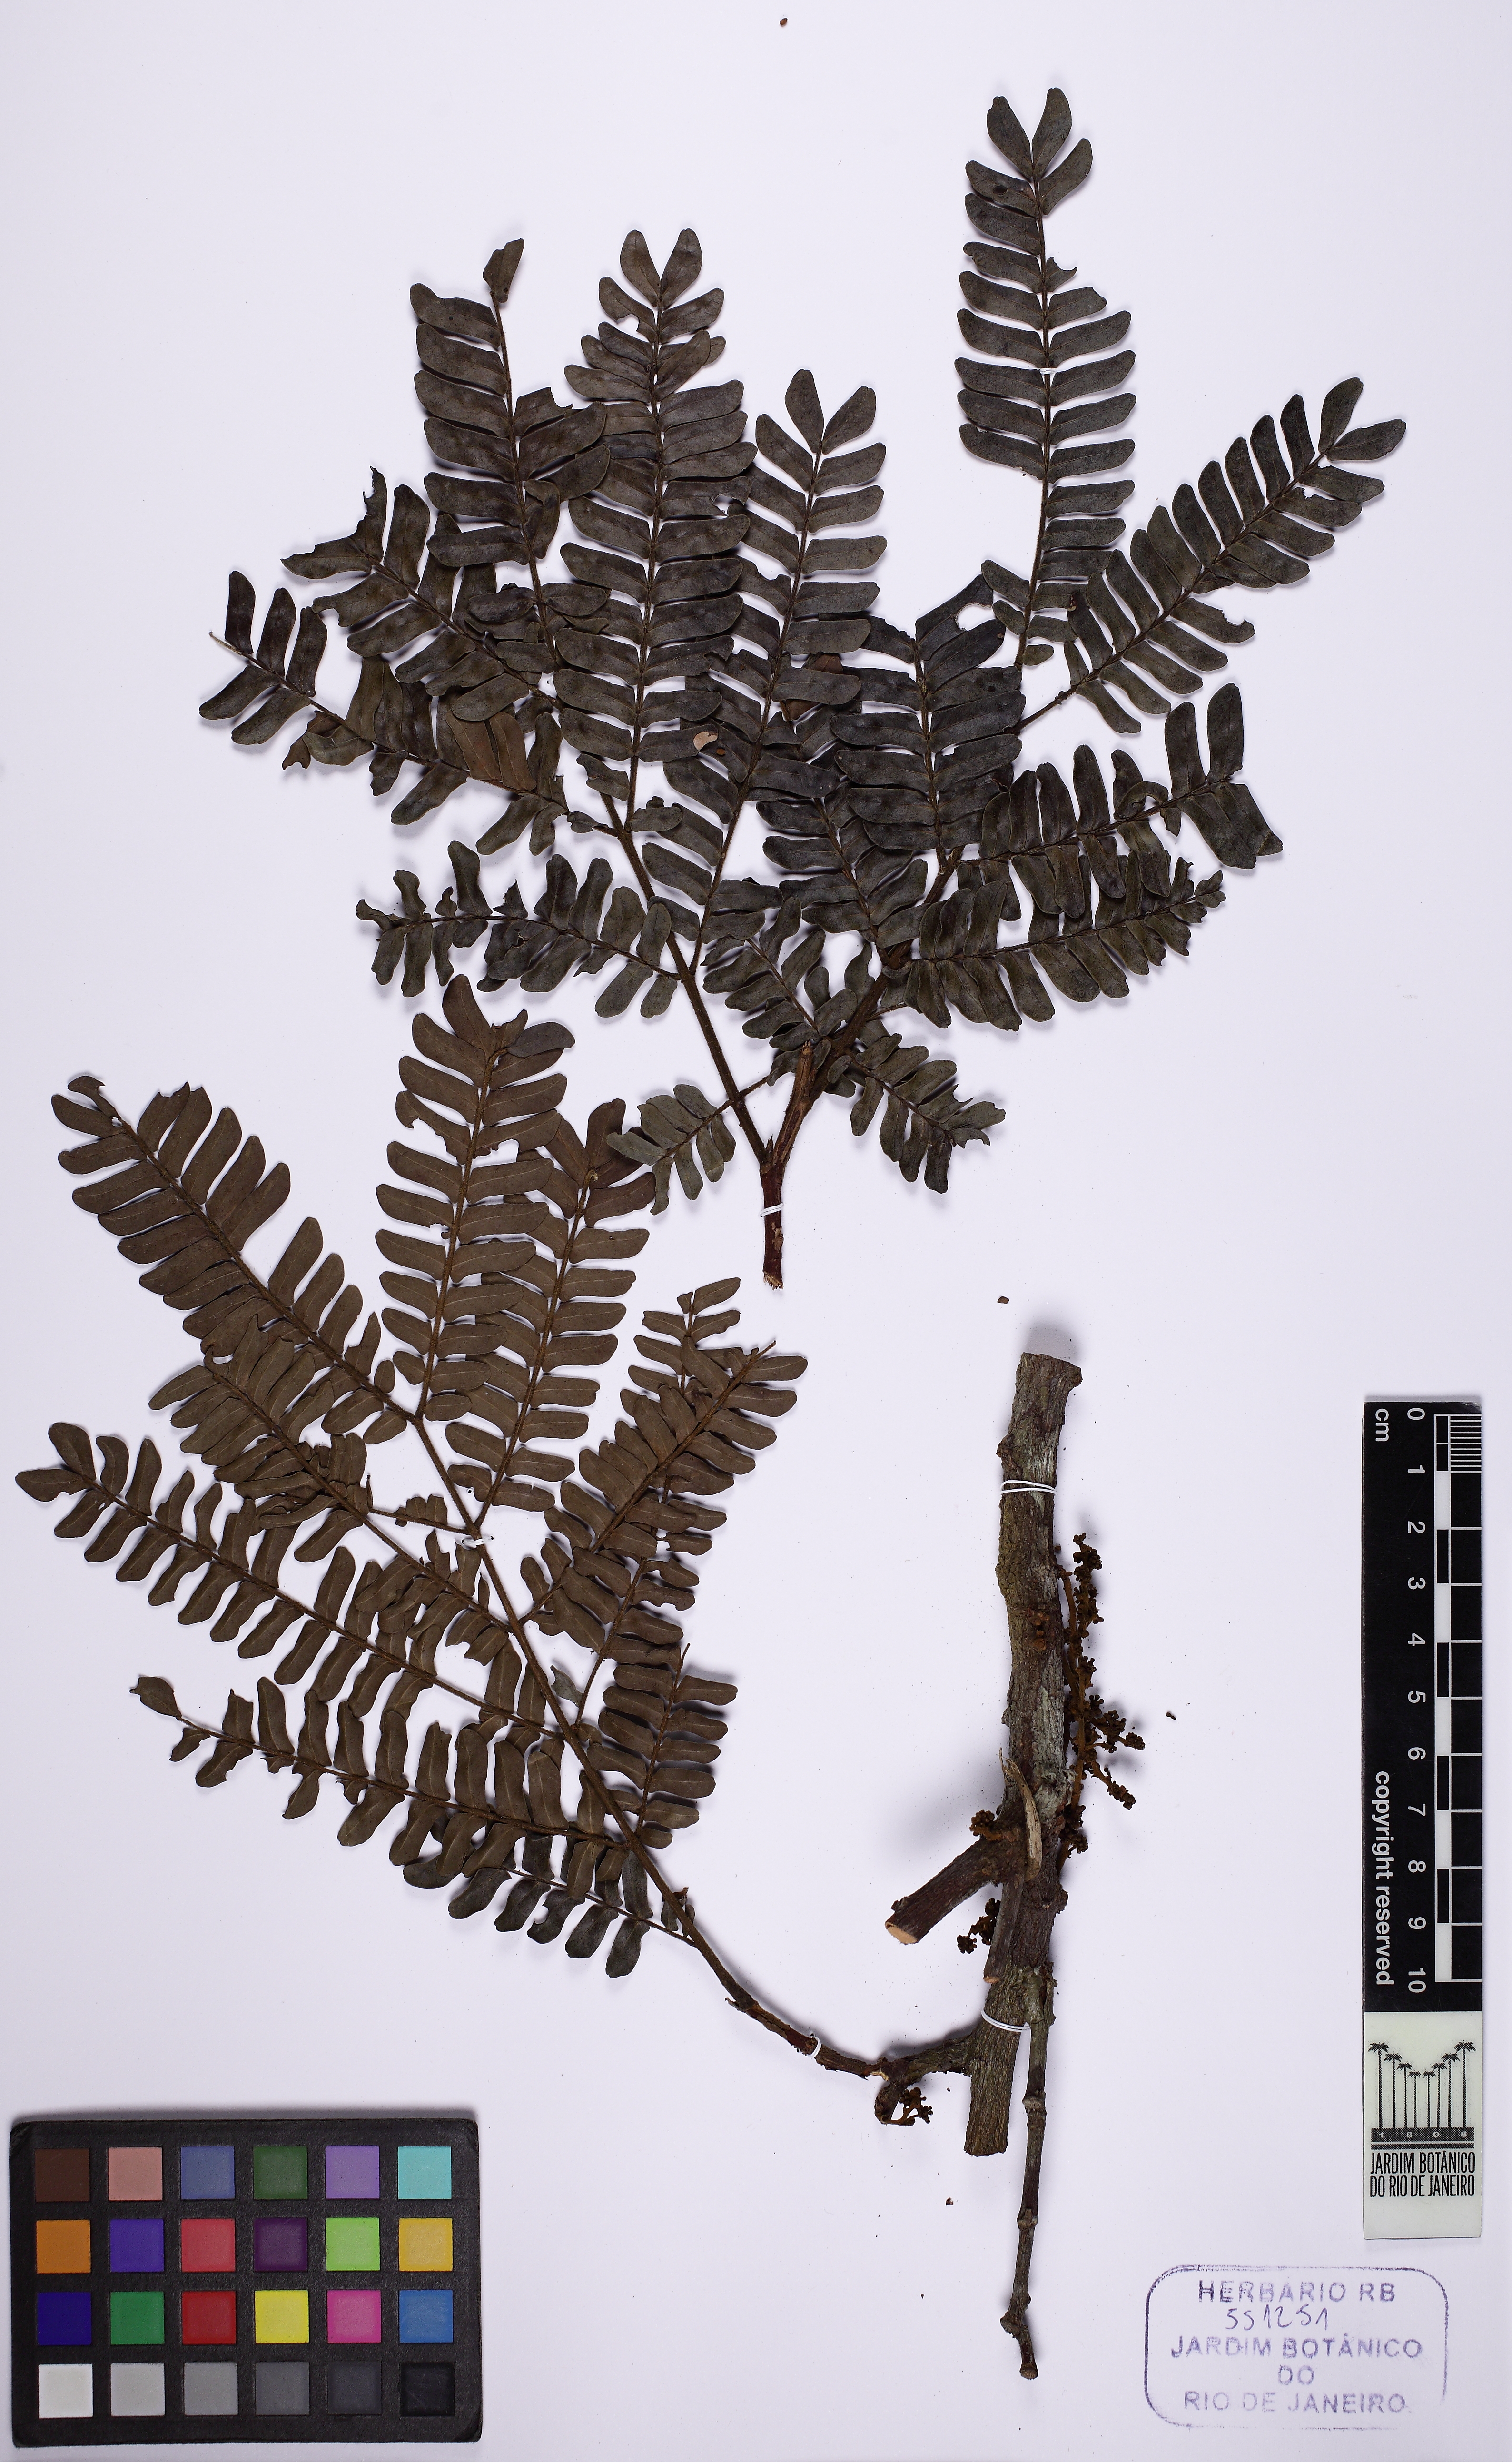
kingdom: Plantae
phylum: Tracheophyta
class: Magnoliopsida
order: Fabales
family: Fabaceae
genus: Enterolobium
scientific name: Enterolobium
